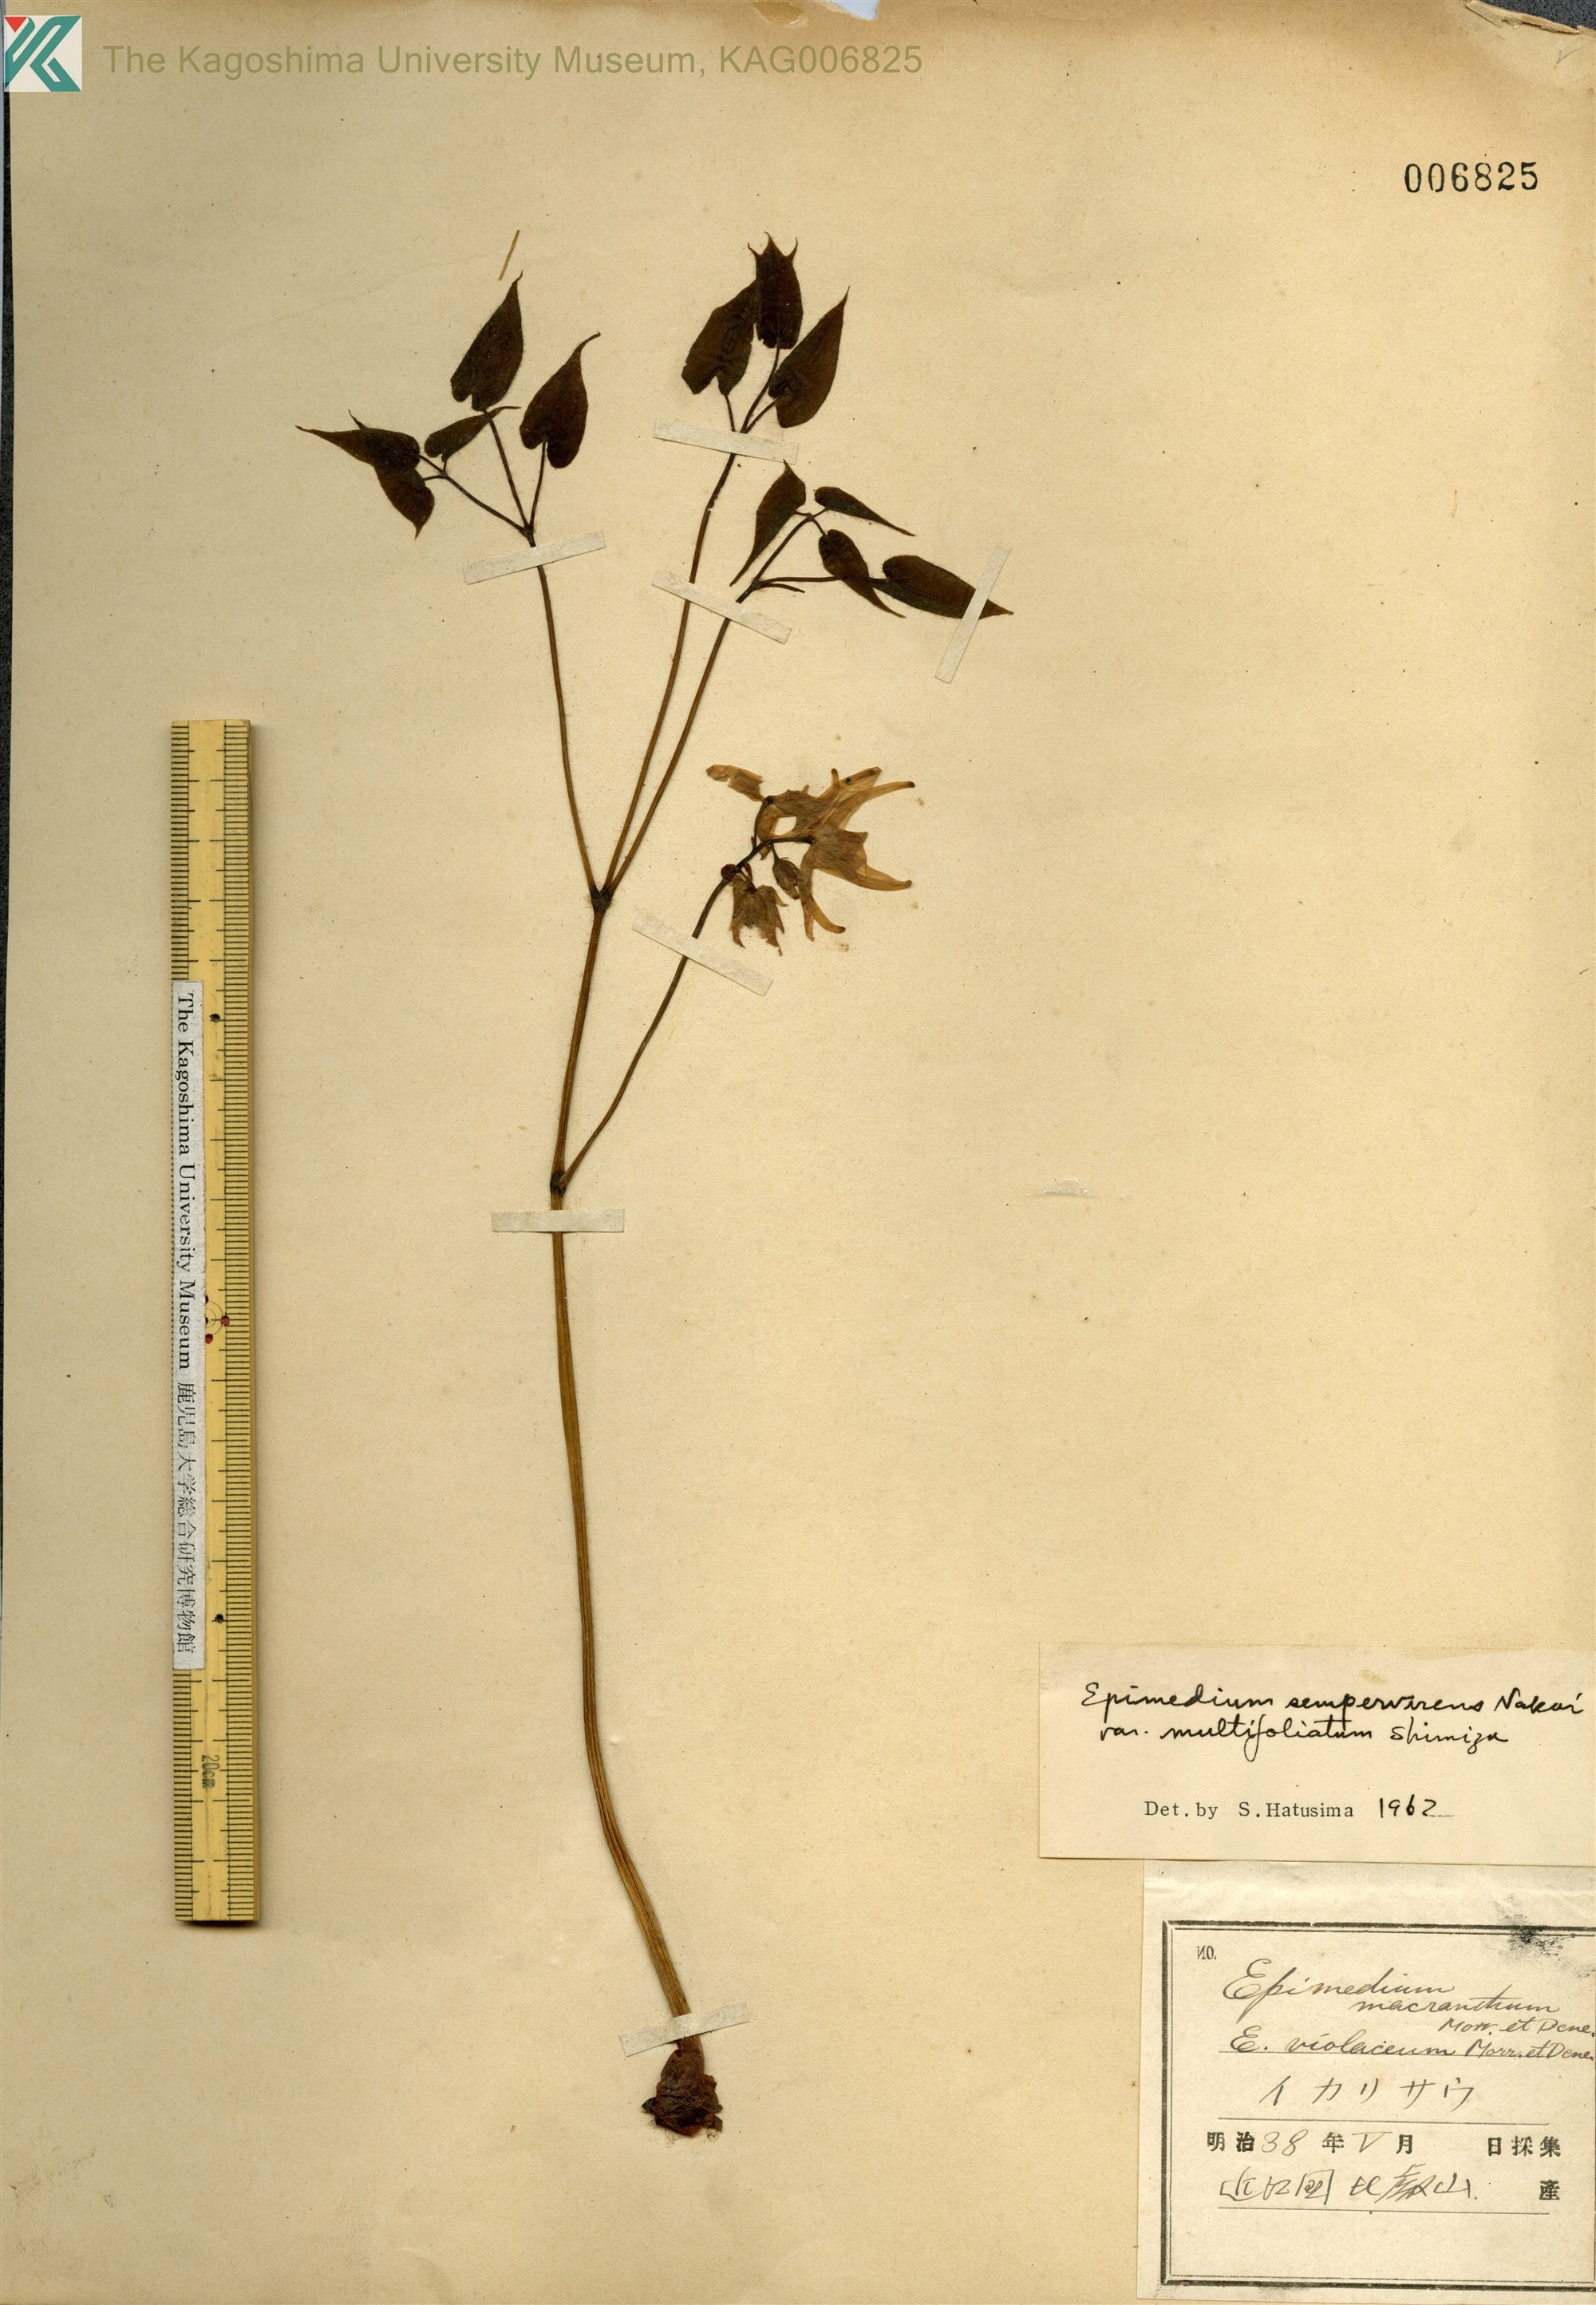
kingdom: Plantae
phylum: Tracheophyta
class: Magnoliopsida
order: Ranunculales
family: Berberidaceae
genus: Epimedium
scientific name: Epimedium sempervirens
